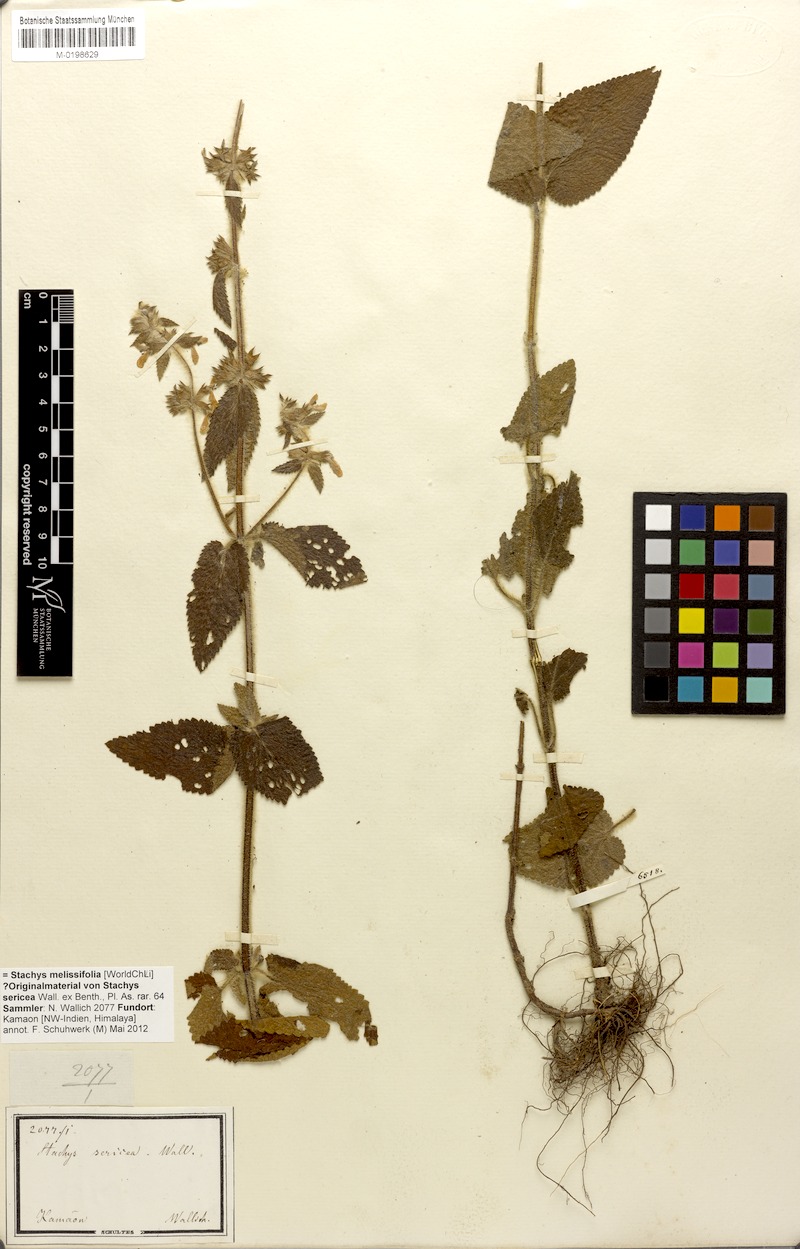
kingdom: Plantae
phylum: Tracheophyta
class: Magnoliopsida
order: Lamiales
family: Lamiaceae
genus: Stachys
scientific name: Stachys splendens
